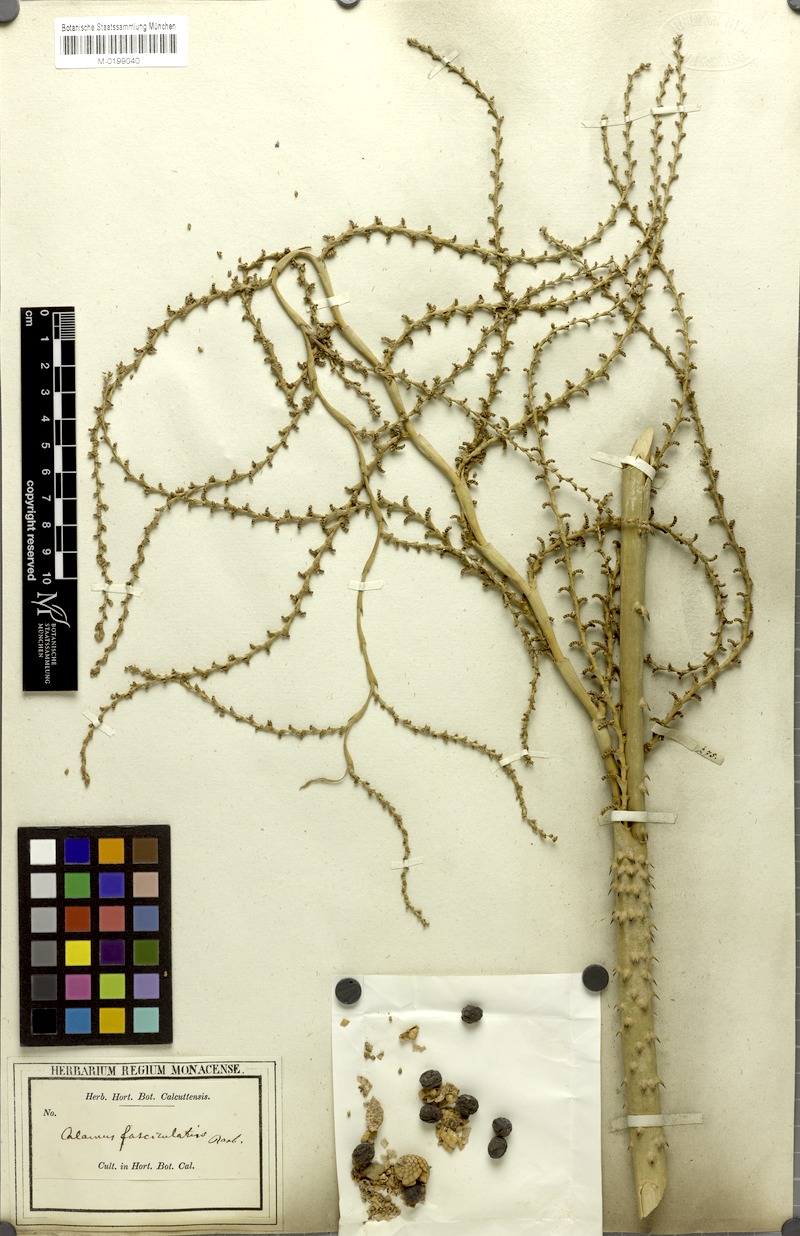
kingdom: Plantae
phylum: Tracheophyta
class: Liliopsida
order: Arecales
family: Arecaceae
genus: Calamus
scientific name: Calamus viminalis
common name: Osier-like rattan palm
